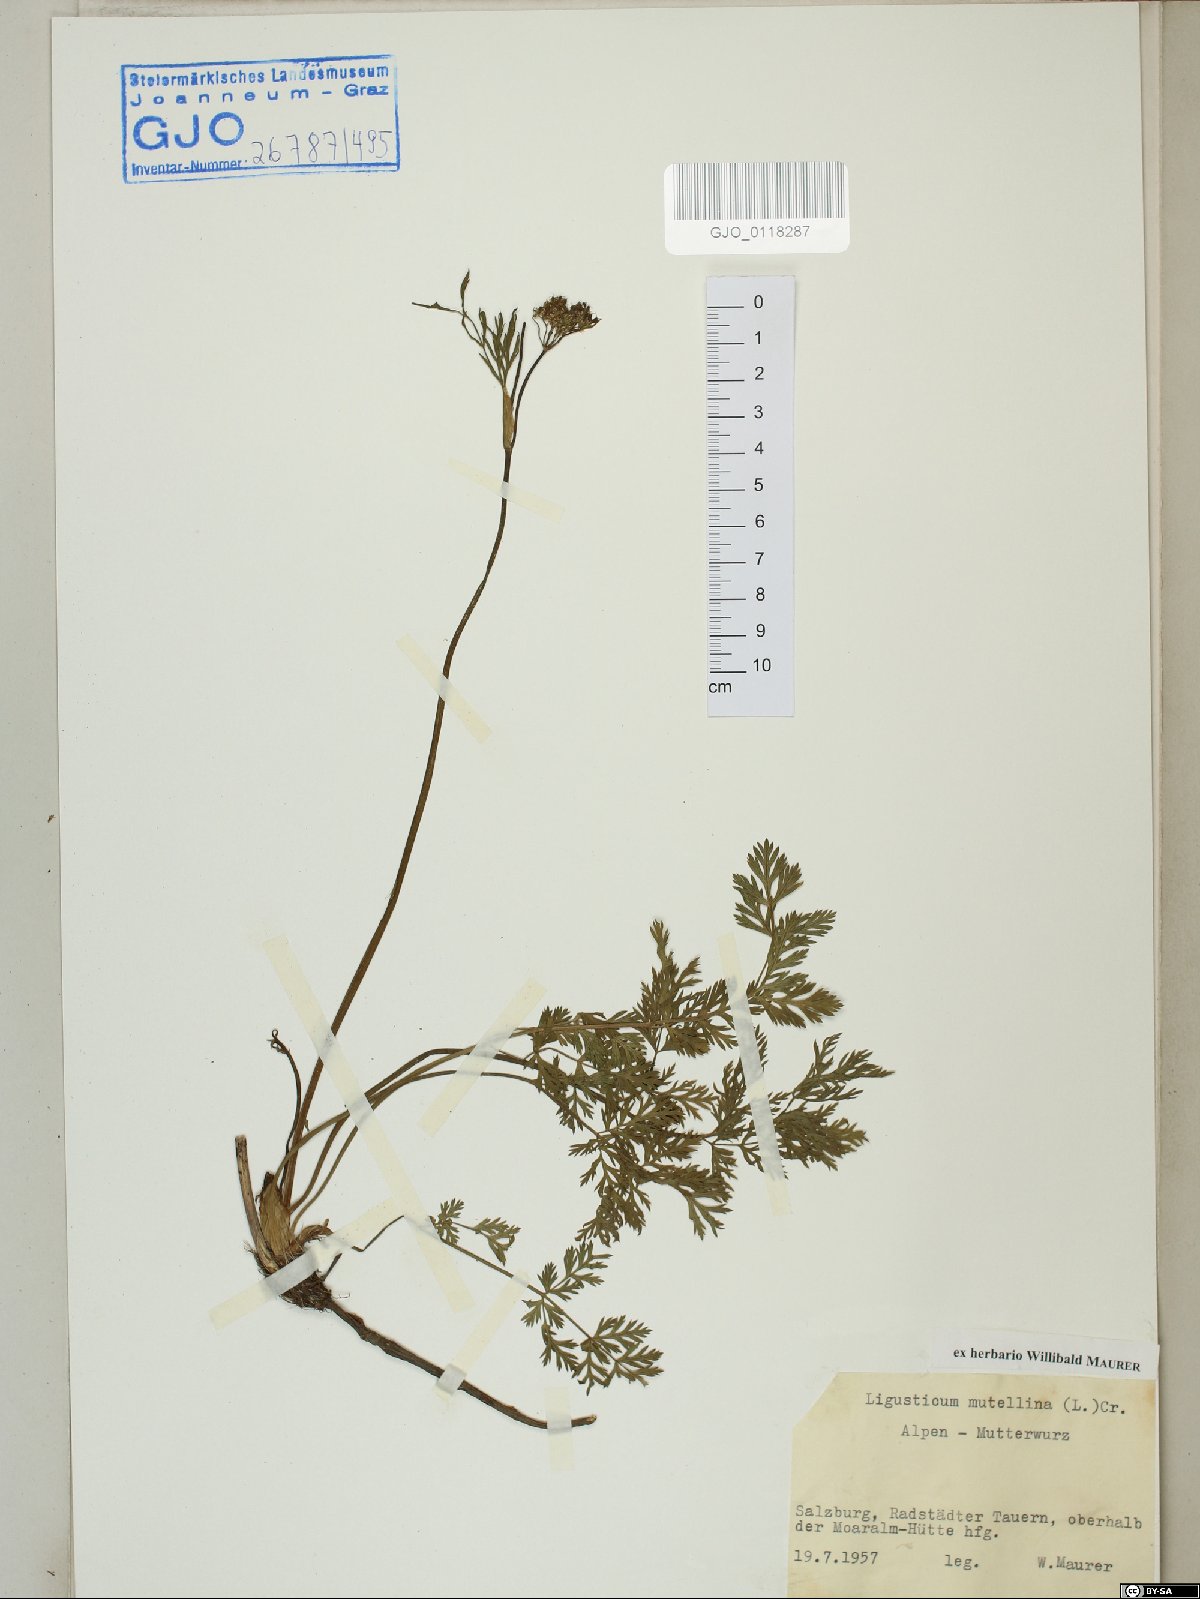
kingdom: Plantae
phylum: Tracheophyta
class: Magnoliopsida
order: Apiales
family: Apiaceae
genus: Mutellina
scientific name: Mutellina adonidifolia
